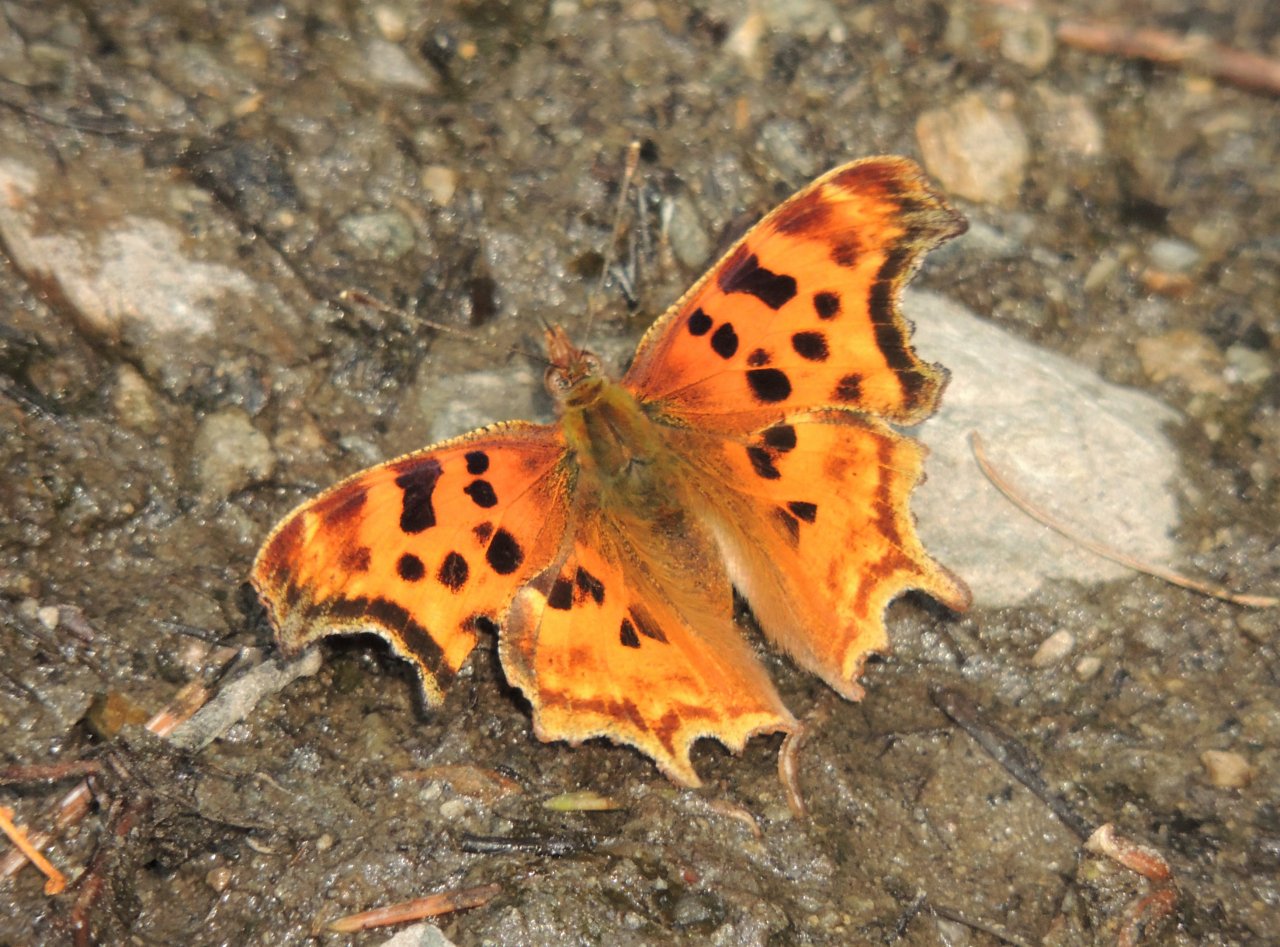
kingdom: Animalia
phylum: Arthropoda
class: Insecta
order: Lepidoptera
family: Nymphalidae
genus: Polygonia
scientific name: Polygonia satyrus
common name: Satyr Comma
